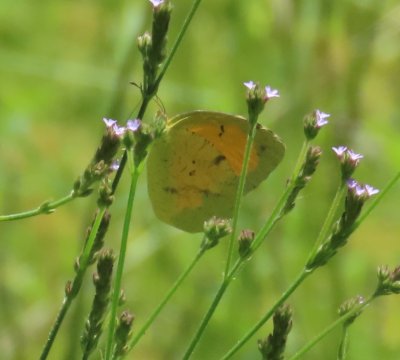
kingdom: Animalia
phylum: Arthropoda
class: Insecta
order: Lepidoptera
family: Pieridae
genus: Abaeis
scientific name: Abaeis nicippe
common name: Sleepy Orange
